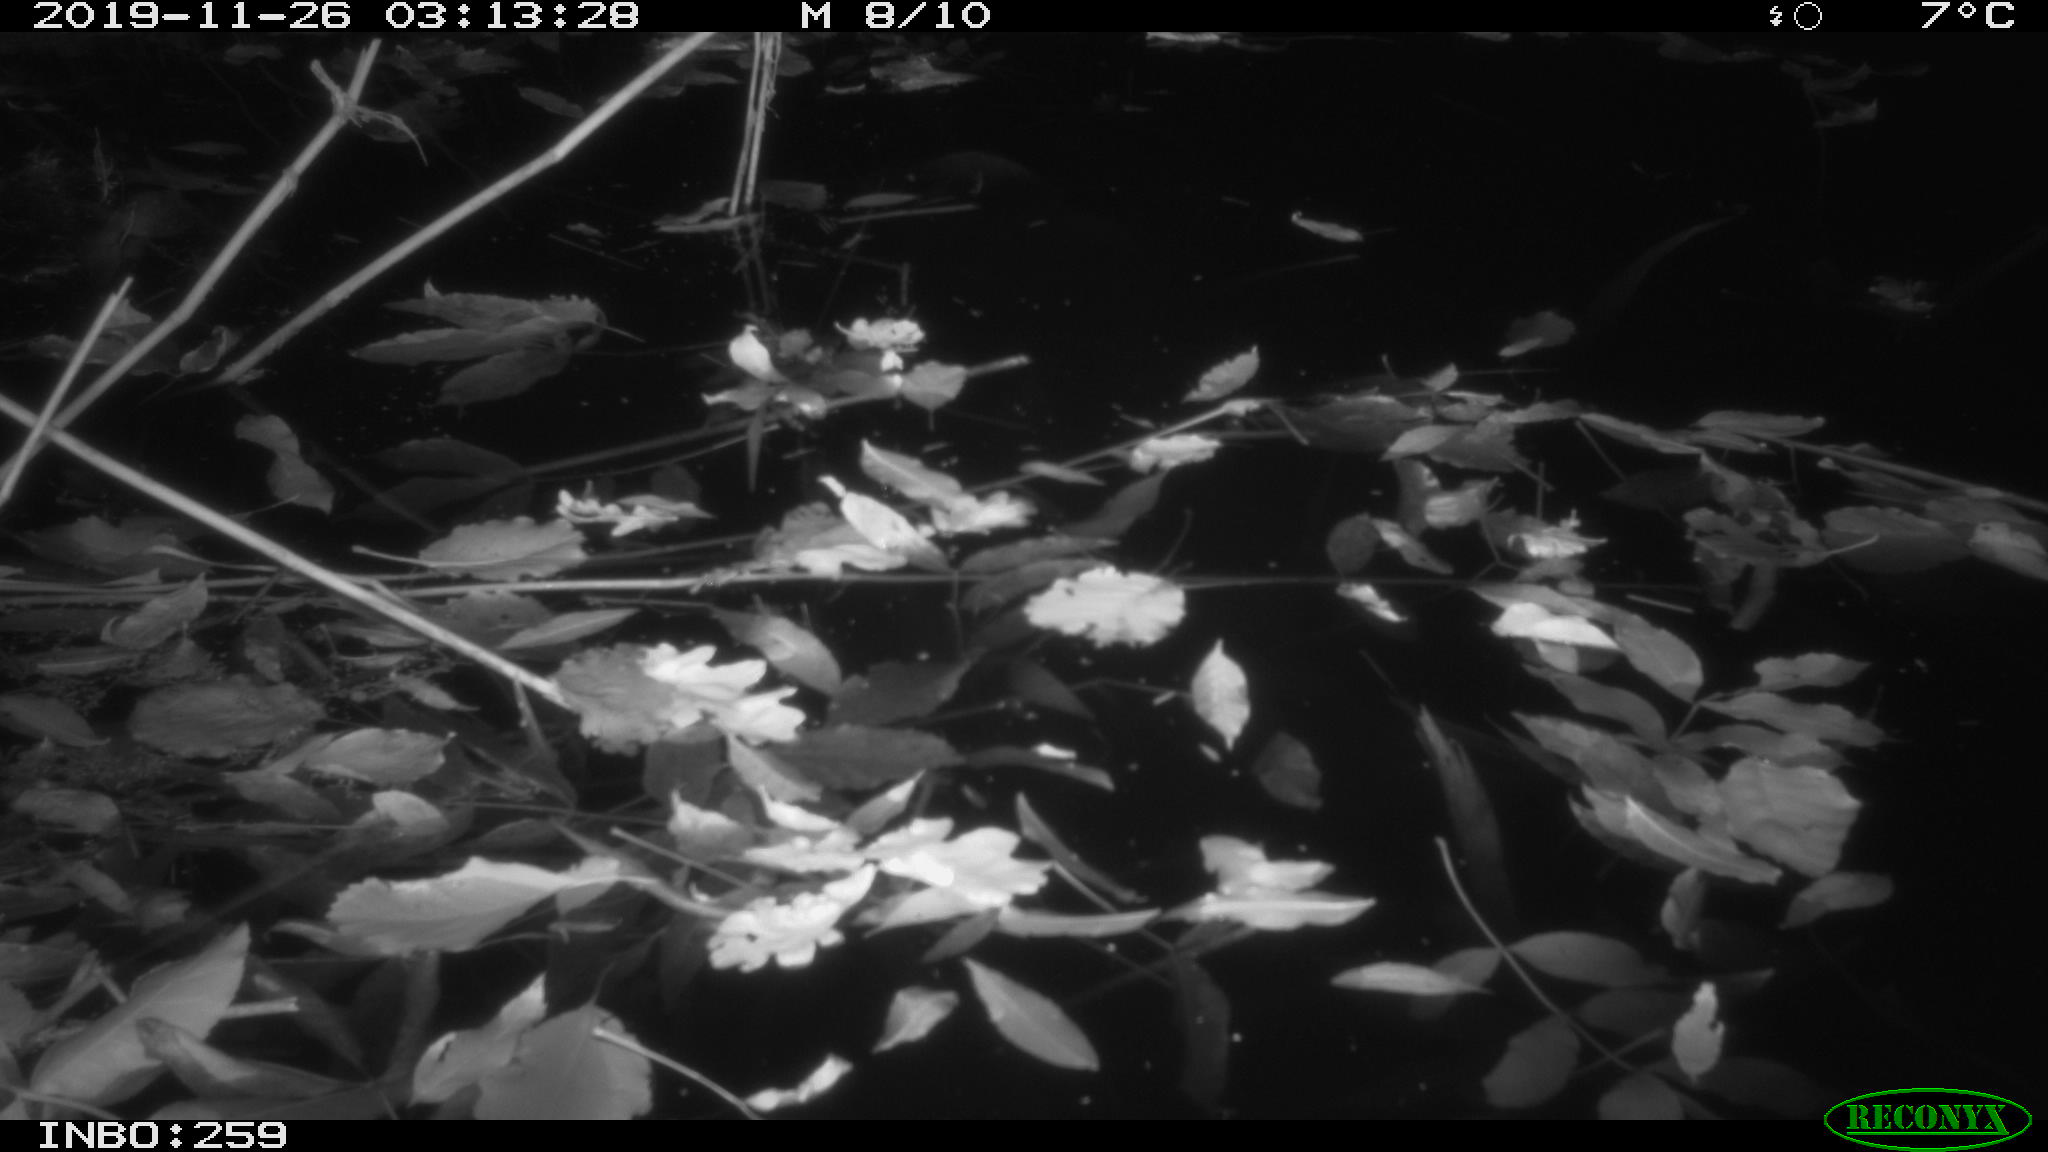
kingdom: Animalia
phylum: Chordata
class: Mammalia
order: Rodentia
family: Muridae
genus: Rattus
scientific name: Rattus norvegicus
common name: Brown rat
